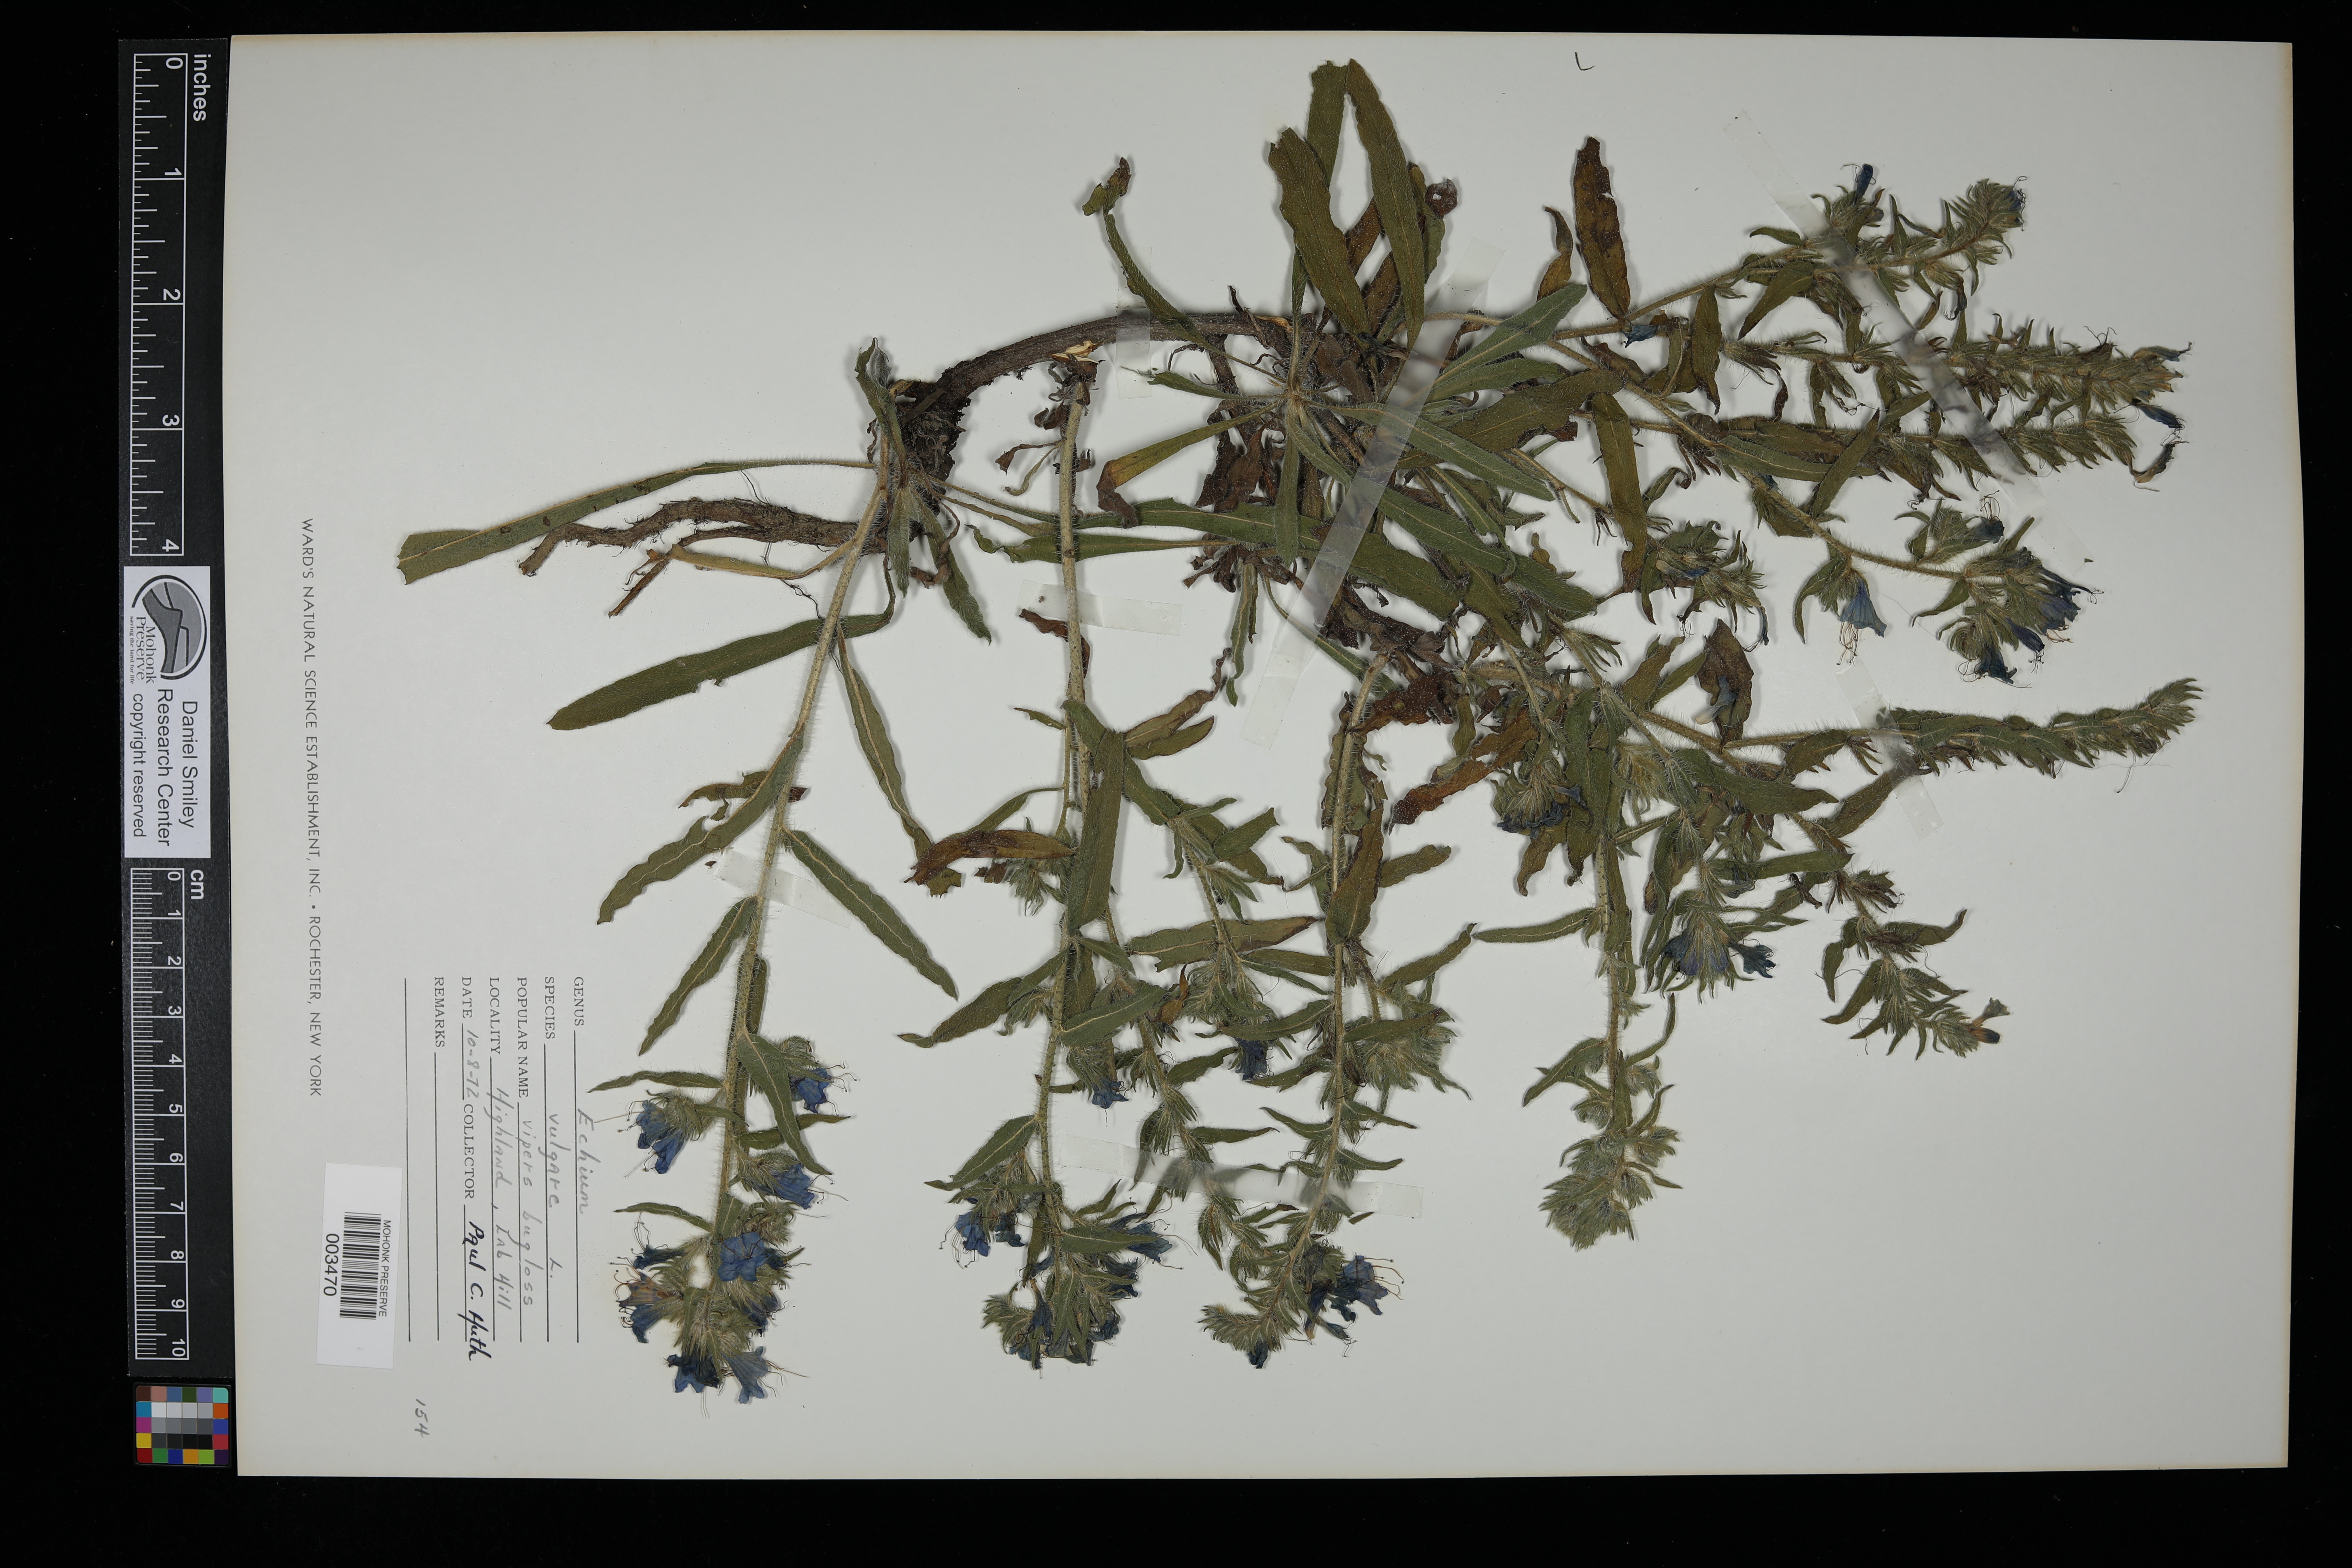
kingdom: Plantae
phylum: Tracheophyta
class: Magnoliopsida
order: Boraginales
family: Boraginaceae
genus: Echium
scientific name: Echium vulgare
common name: Common viper's bugloss
